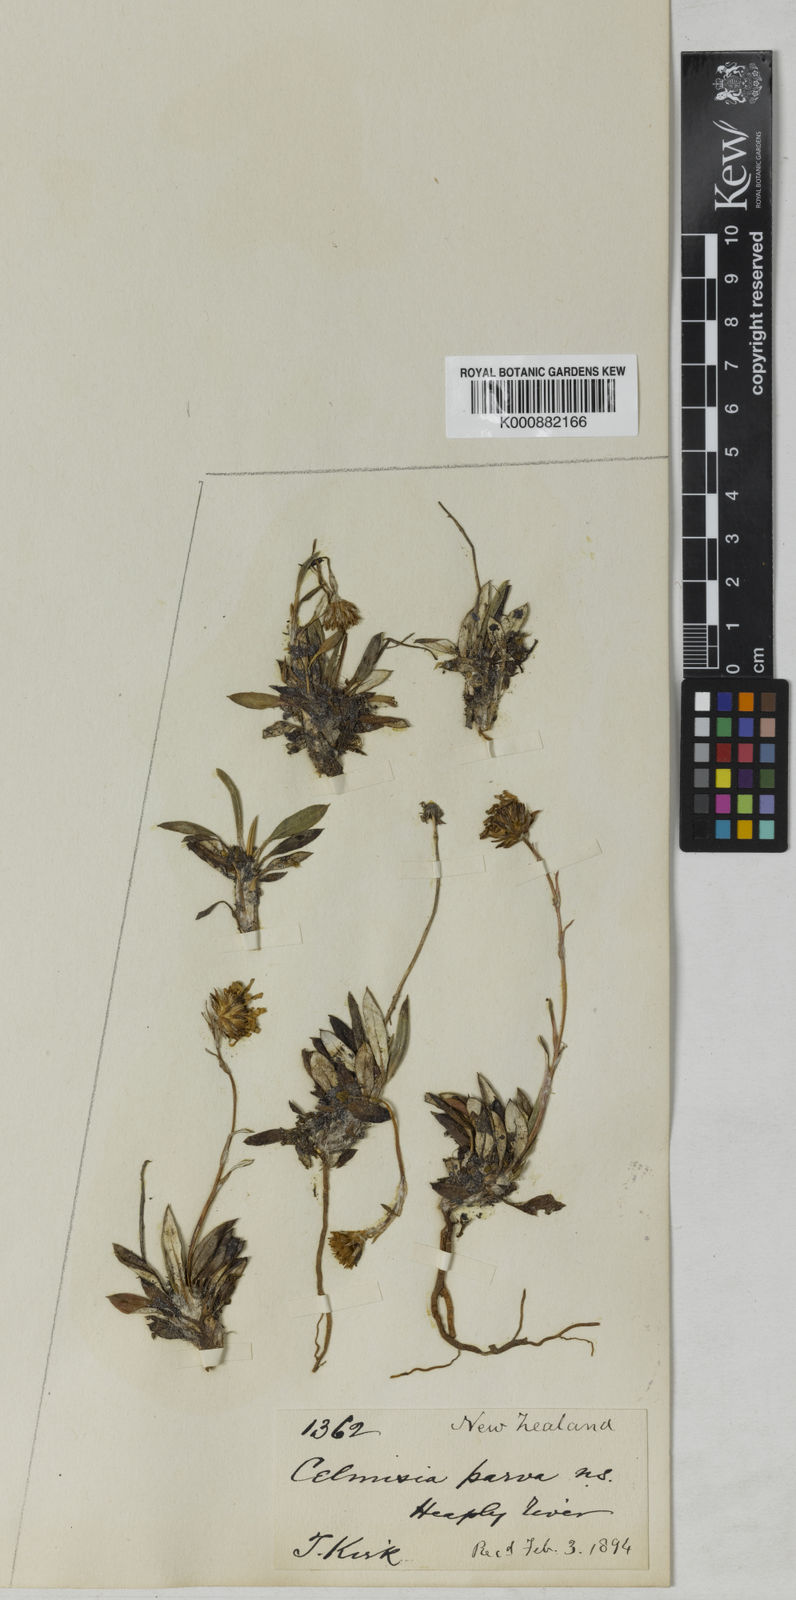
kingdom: Plantae
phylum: Tracheophyta
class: Magnoliopsida
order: Asterales
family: Asteraceae
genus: Celmisia
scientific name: Celmisia parva
